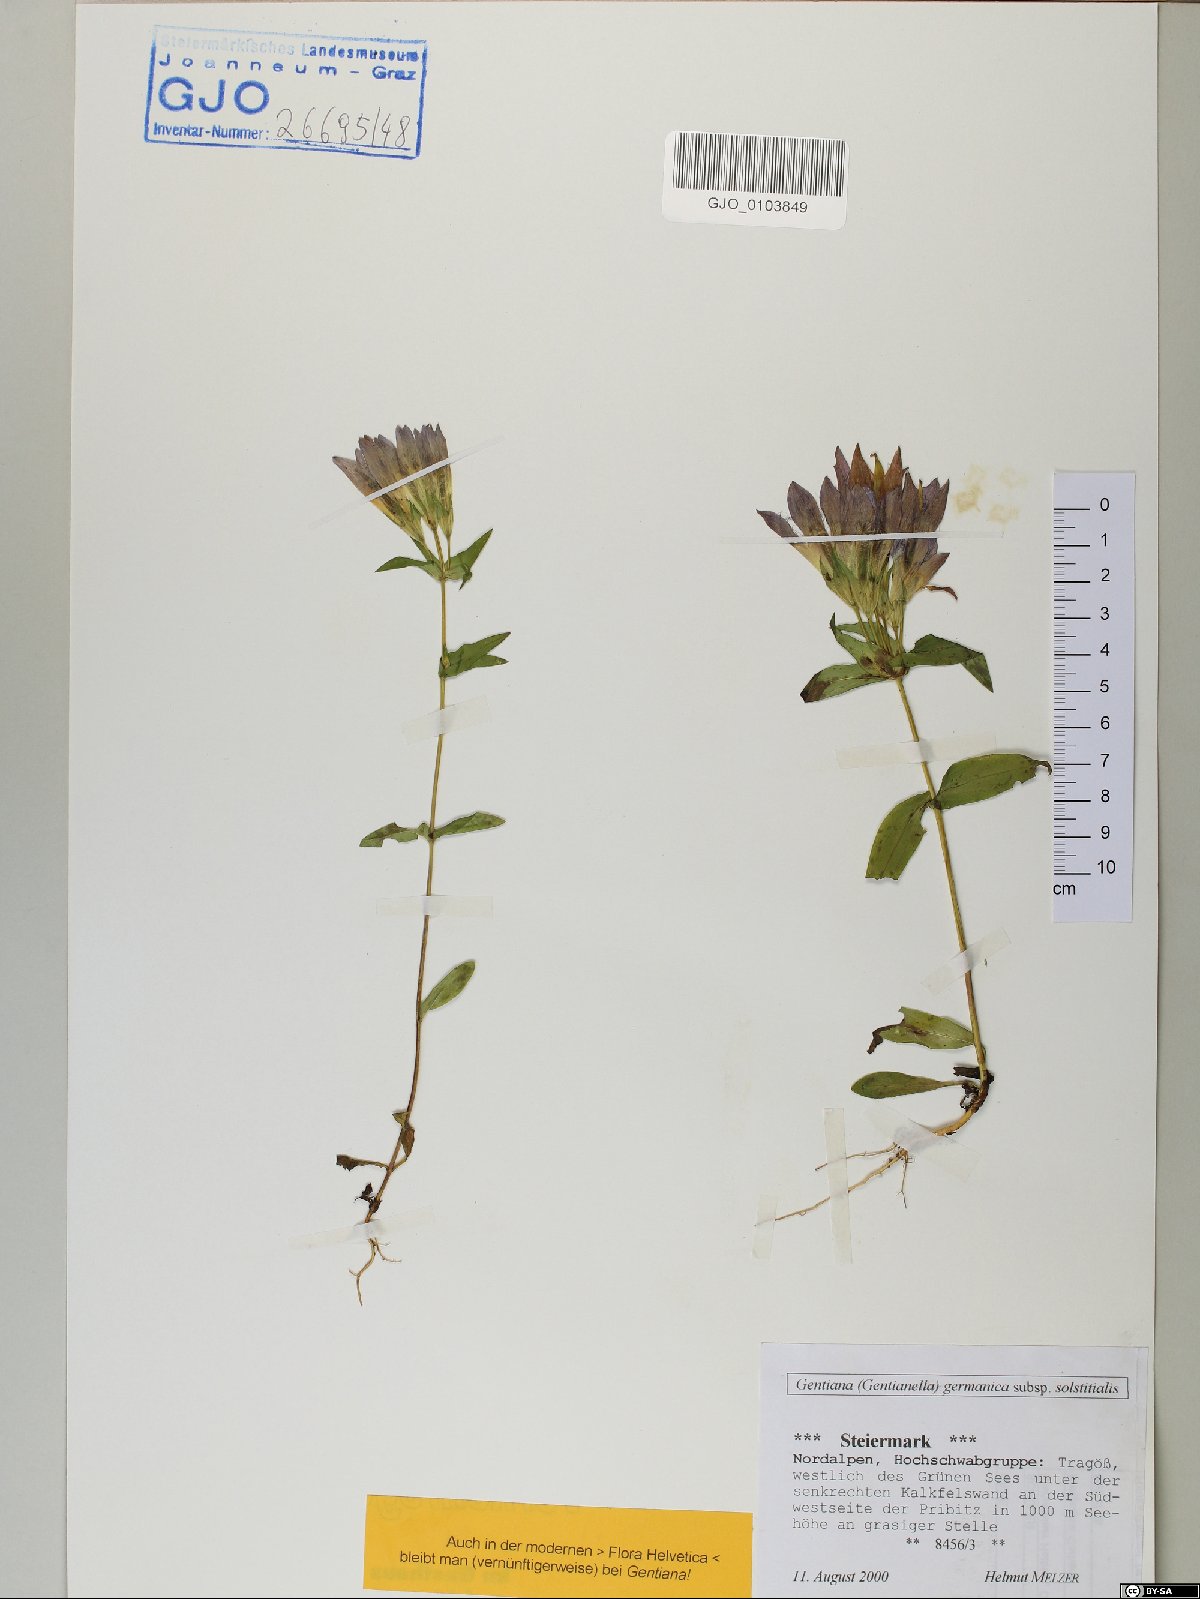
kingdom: Plantae
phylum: Tracheophyta
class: Magnoliopsida
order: Gentianales
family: Gentianaceae
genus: Gentianella
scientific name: Gentianella germanica
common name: Chiltern-gentian
